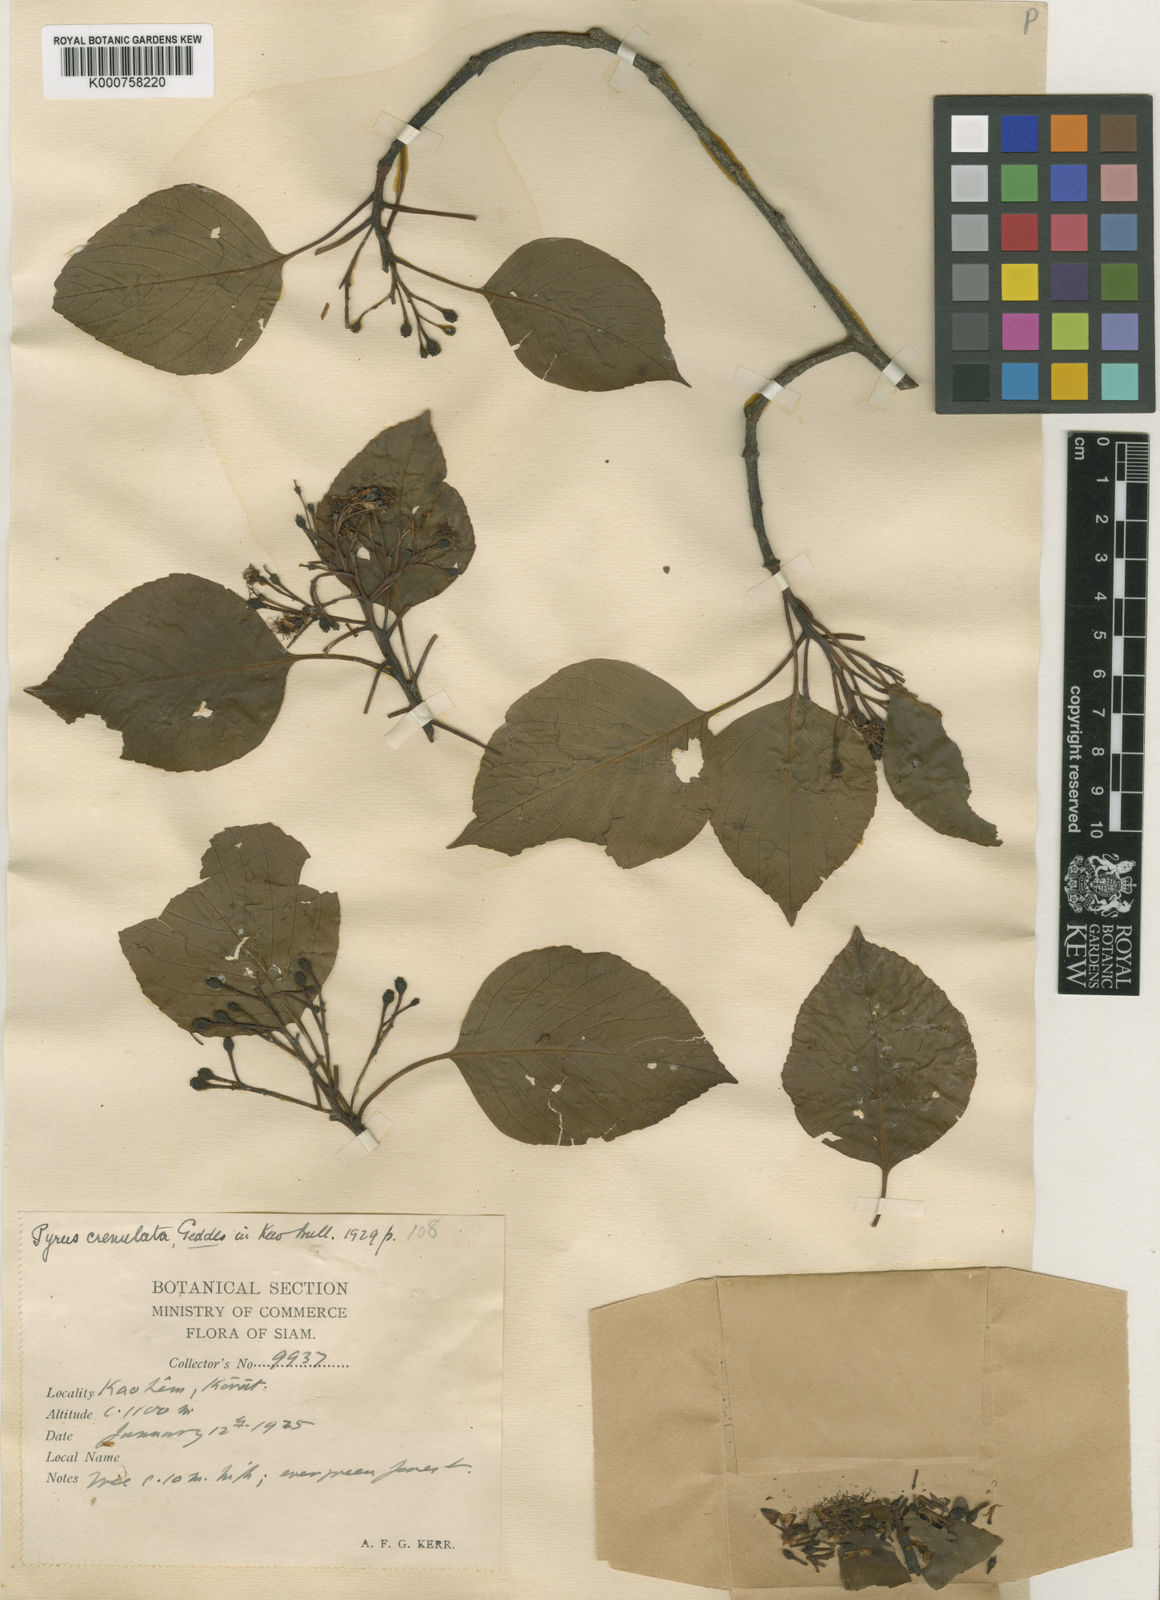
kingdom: Plantae
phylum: Tracheophyta
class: Magnoliopsida
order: Rosales
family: Rosaceae
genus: Sorbus
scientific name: Sorbus
